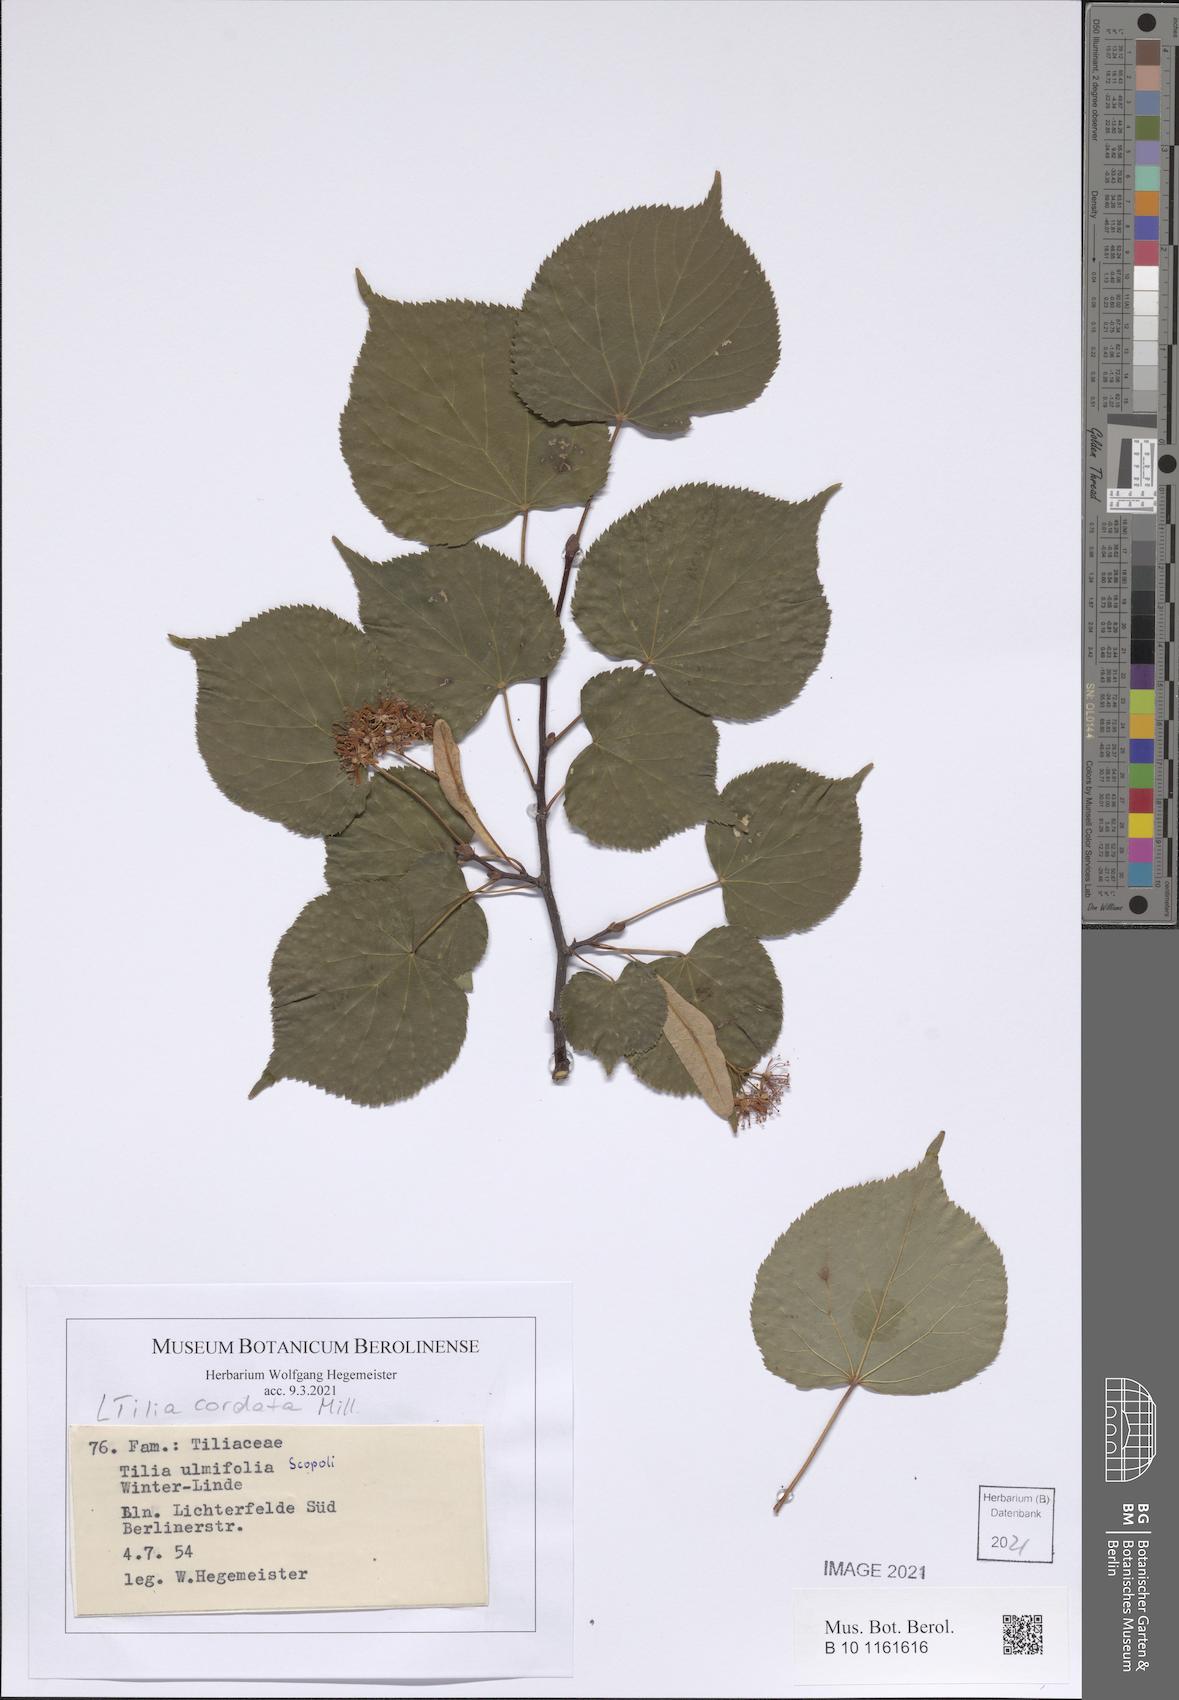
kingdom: Plantae
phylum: Tracheophyta
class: Magnoliopsida
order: Malvales
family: Malvaceae
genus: Tilia
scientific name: Tilia cordata
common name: Small-leaved lime
